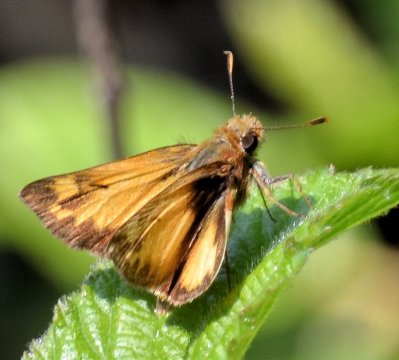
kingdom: Animalia
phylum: Arthropoda
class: Insecta
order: Lepidoptera
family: Hesperiidae
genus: Lon
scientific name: Lon zabulon
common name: Zabulon Skipper
